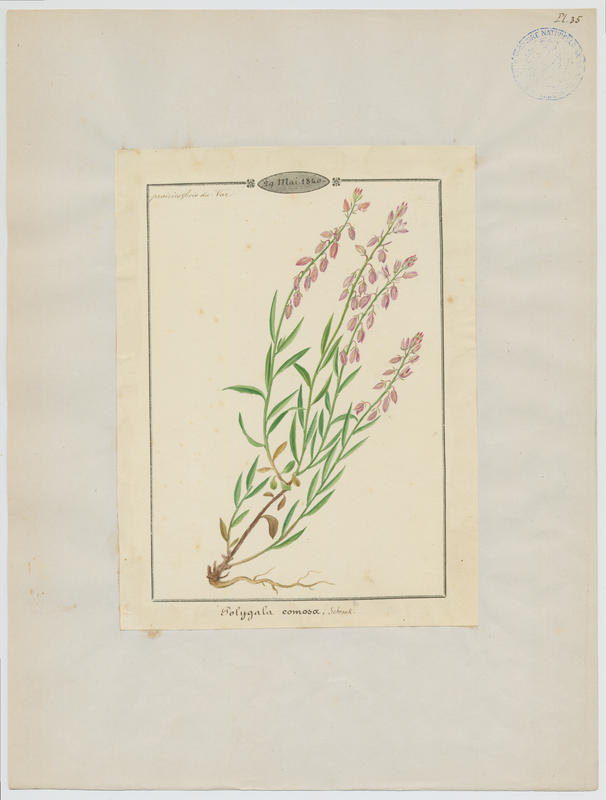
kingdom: Plantae
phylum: Tracheophyta
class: Magnoliopsida
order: Fabales
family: Polygalaceae
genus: Polygala
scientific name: Polygala comosa
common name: Tufted milkwort
